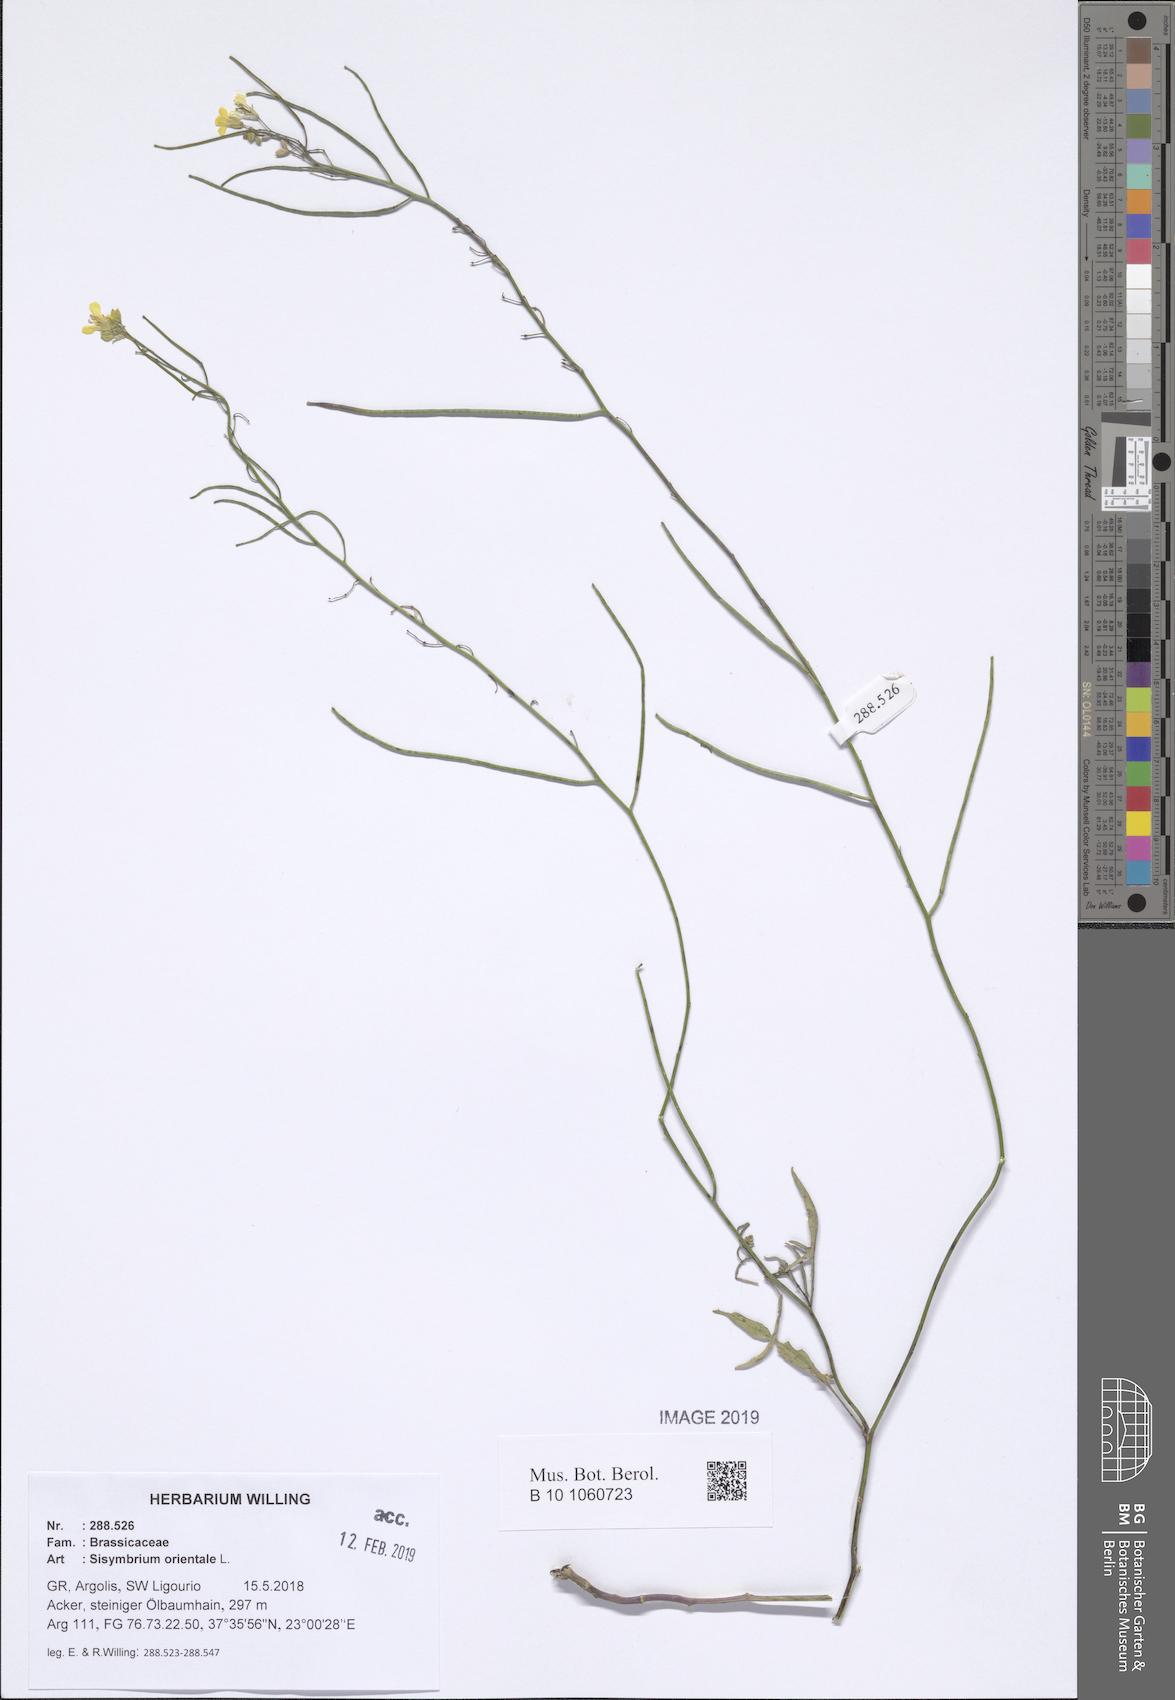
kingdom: Plantae
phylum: Tracheophyta
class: Magnoliopsida
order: Brassicales
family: Brassicaceae
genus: Sisymbrium
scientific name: Sisymbrium orientale
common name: Eastern rocket
